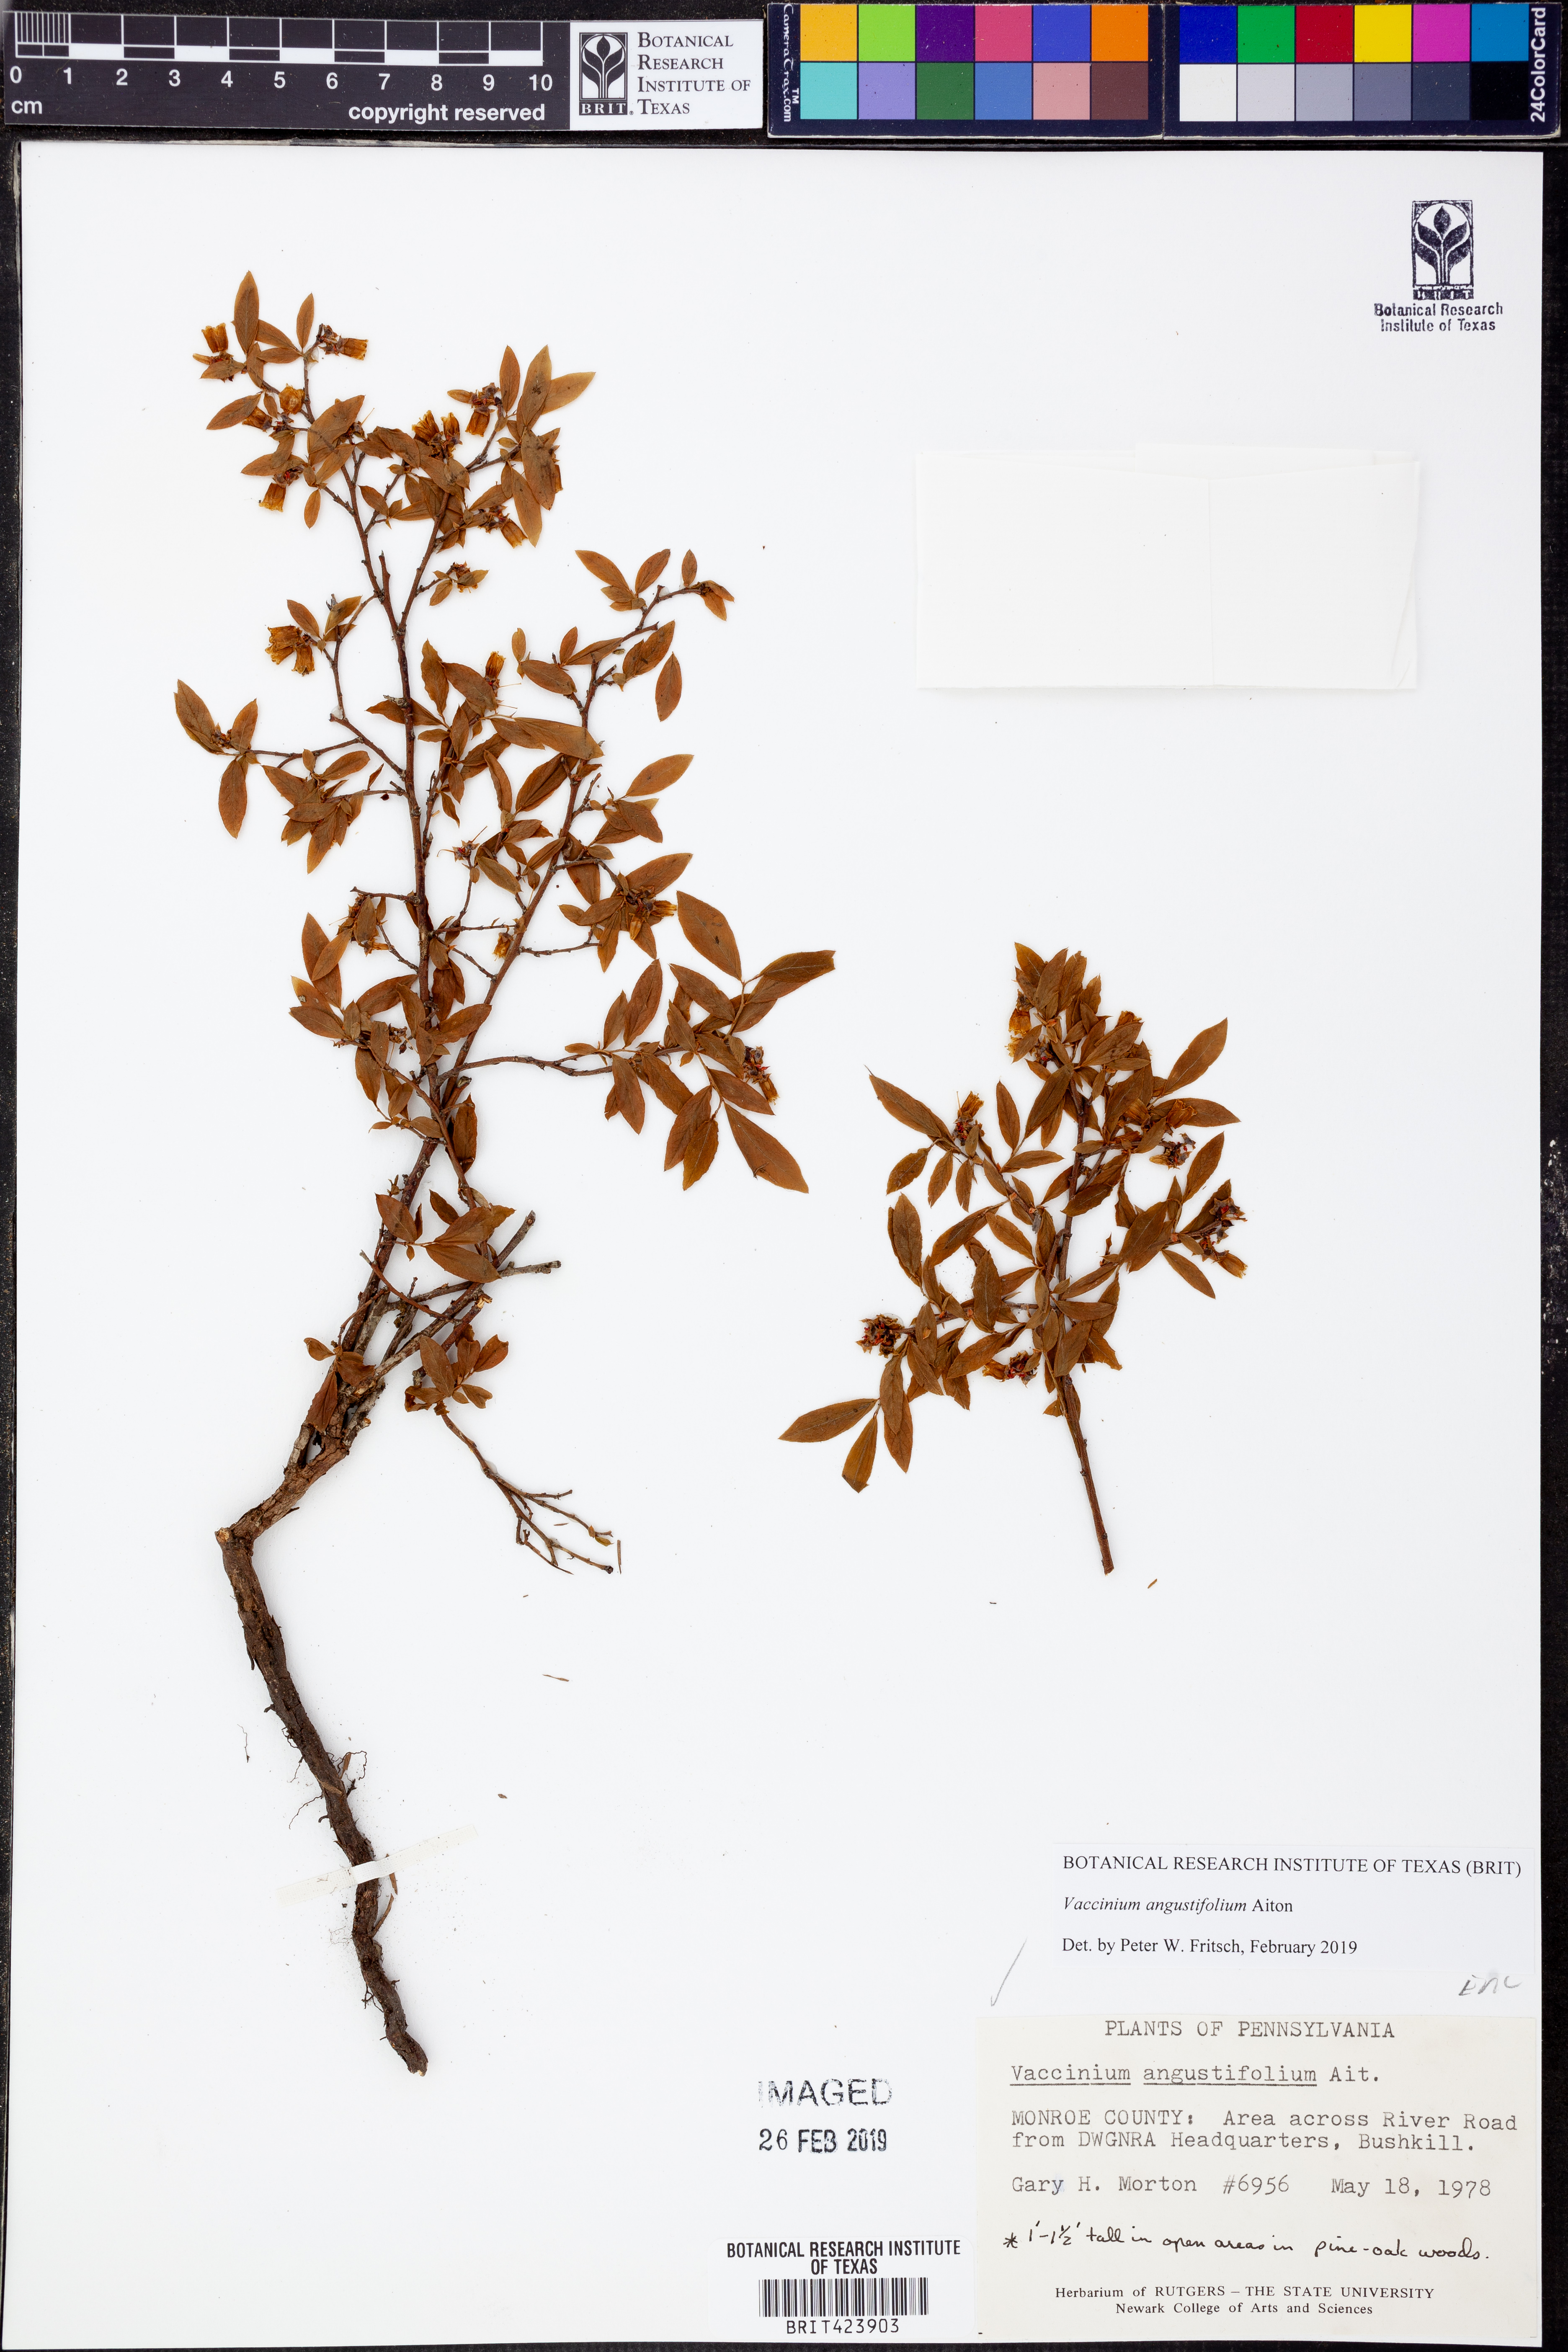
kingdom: Plantae
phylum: Tracheophyta
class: Magnoliopsida
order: Ericales
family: Ericaceae
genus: Vaccinium
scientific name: Vaccinium angustifolium
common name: Early lowbush blueberry
